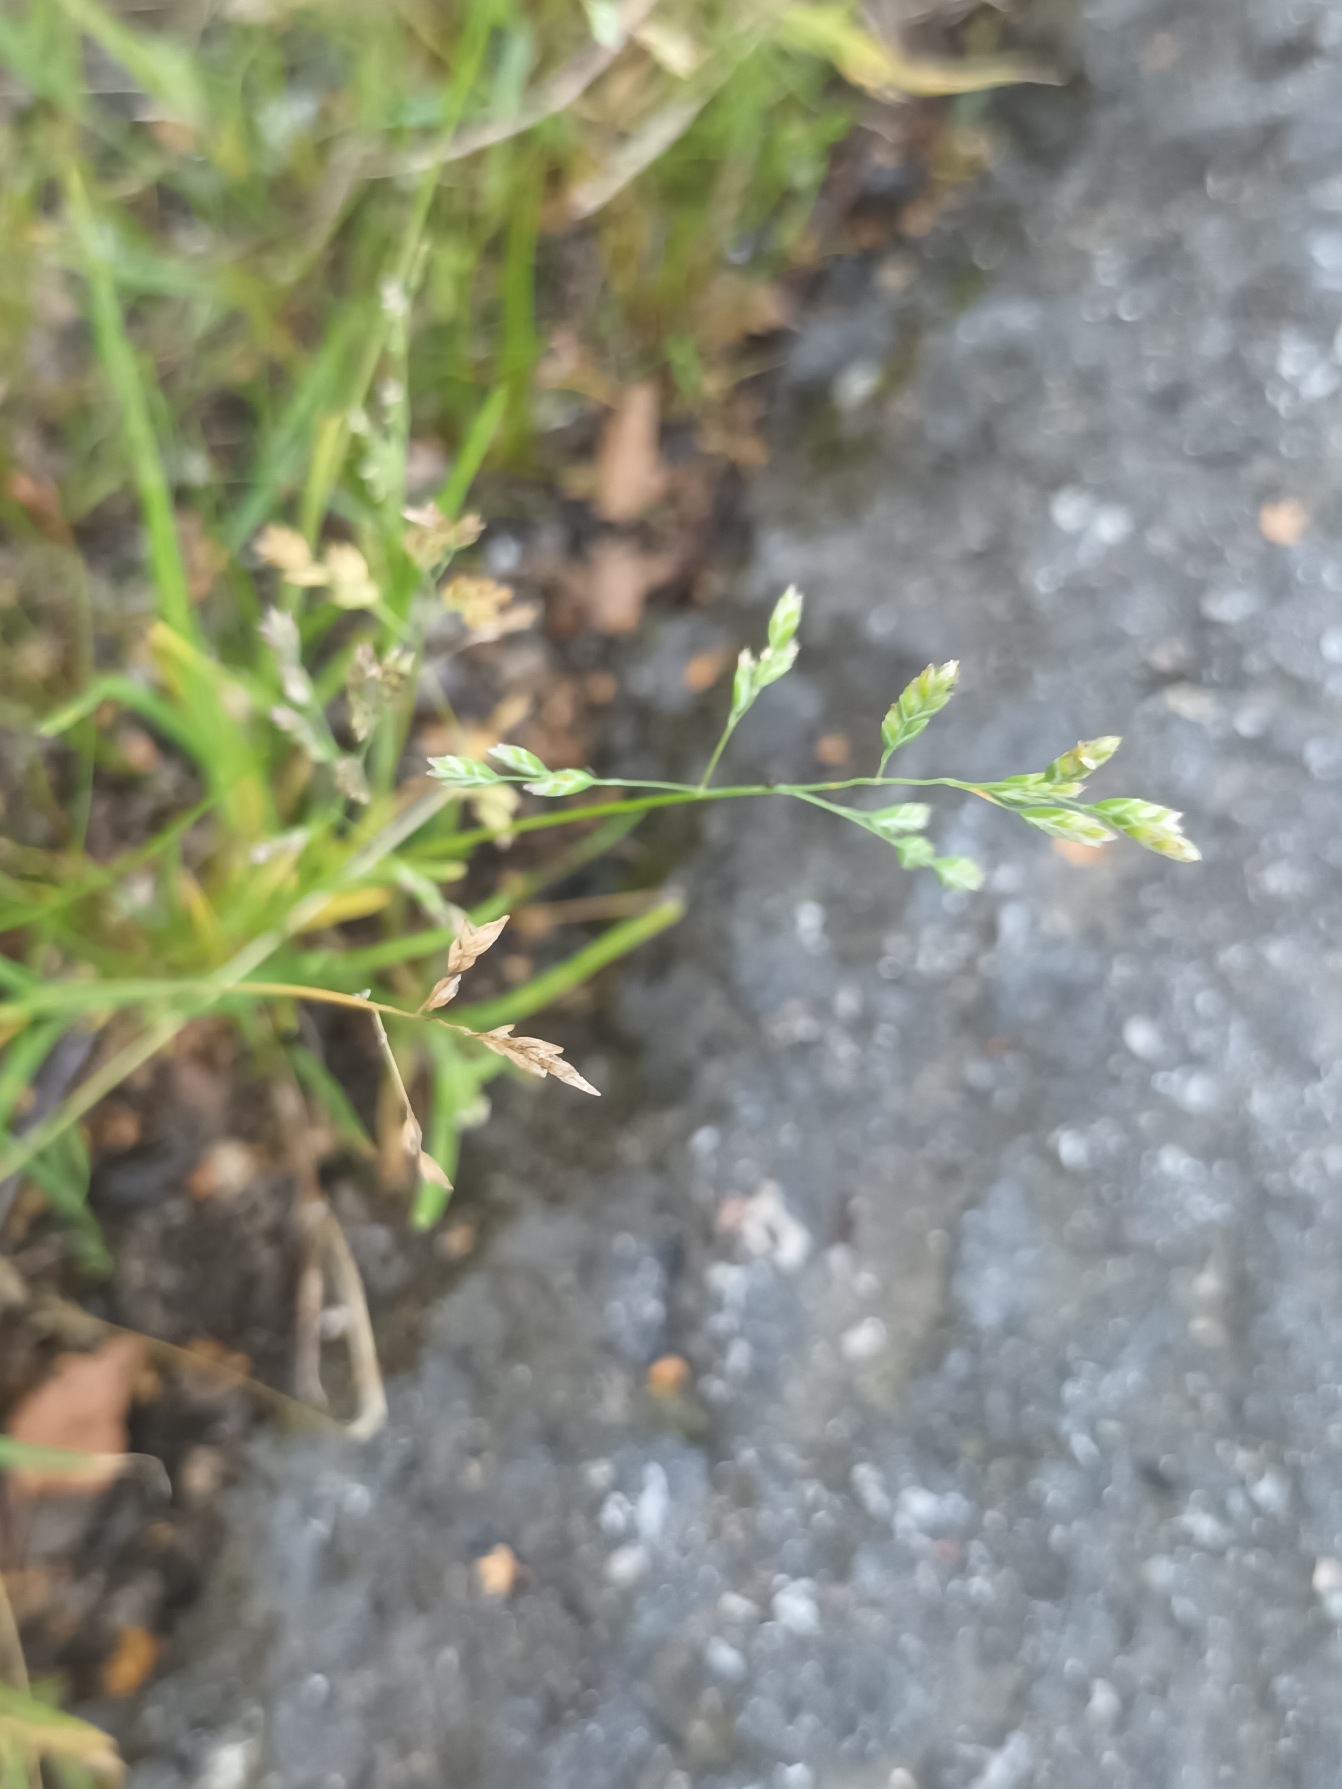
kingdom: Plantae
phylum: Tracheophyta
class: Liliopsida
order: Poales
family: Poaceae
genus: Poa
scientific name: Poa annua
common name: Enårig rapgræs
